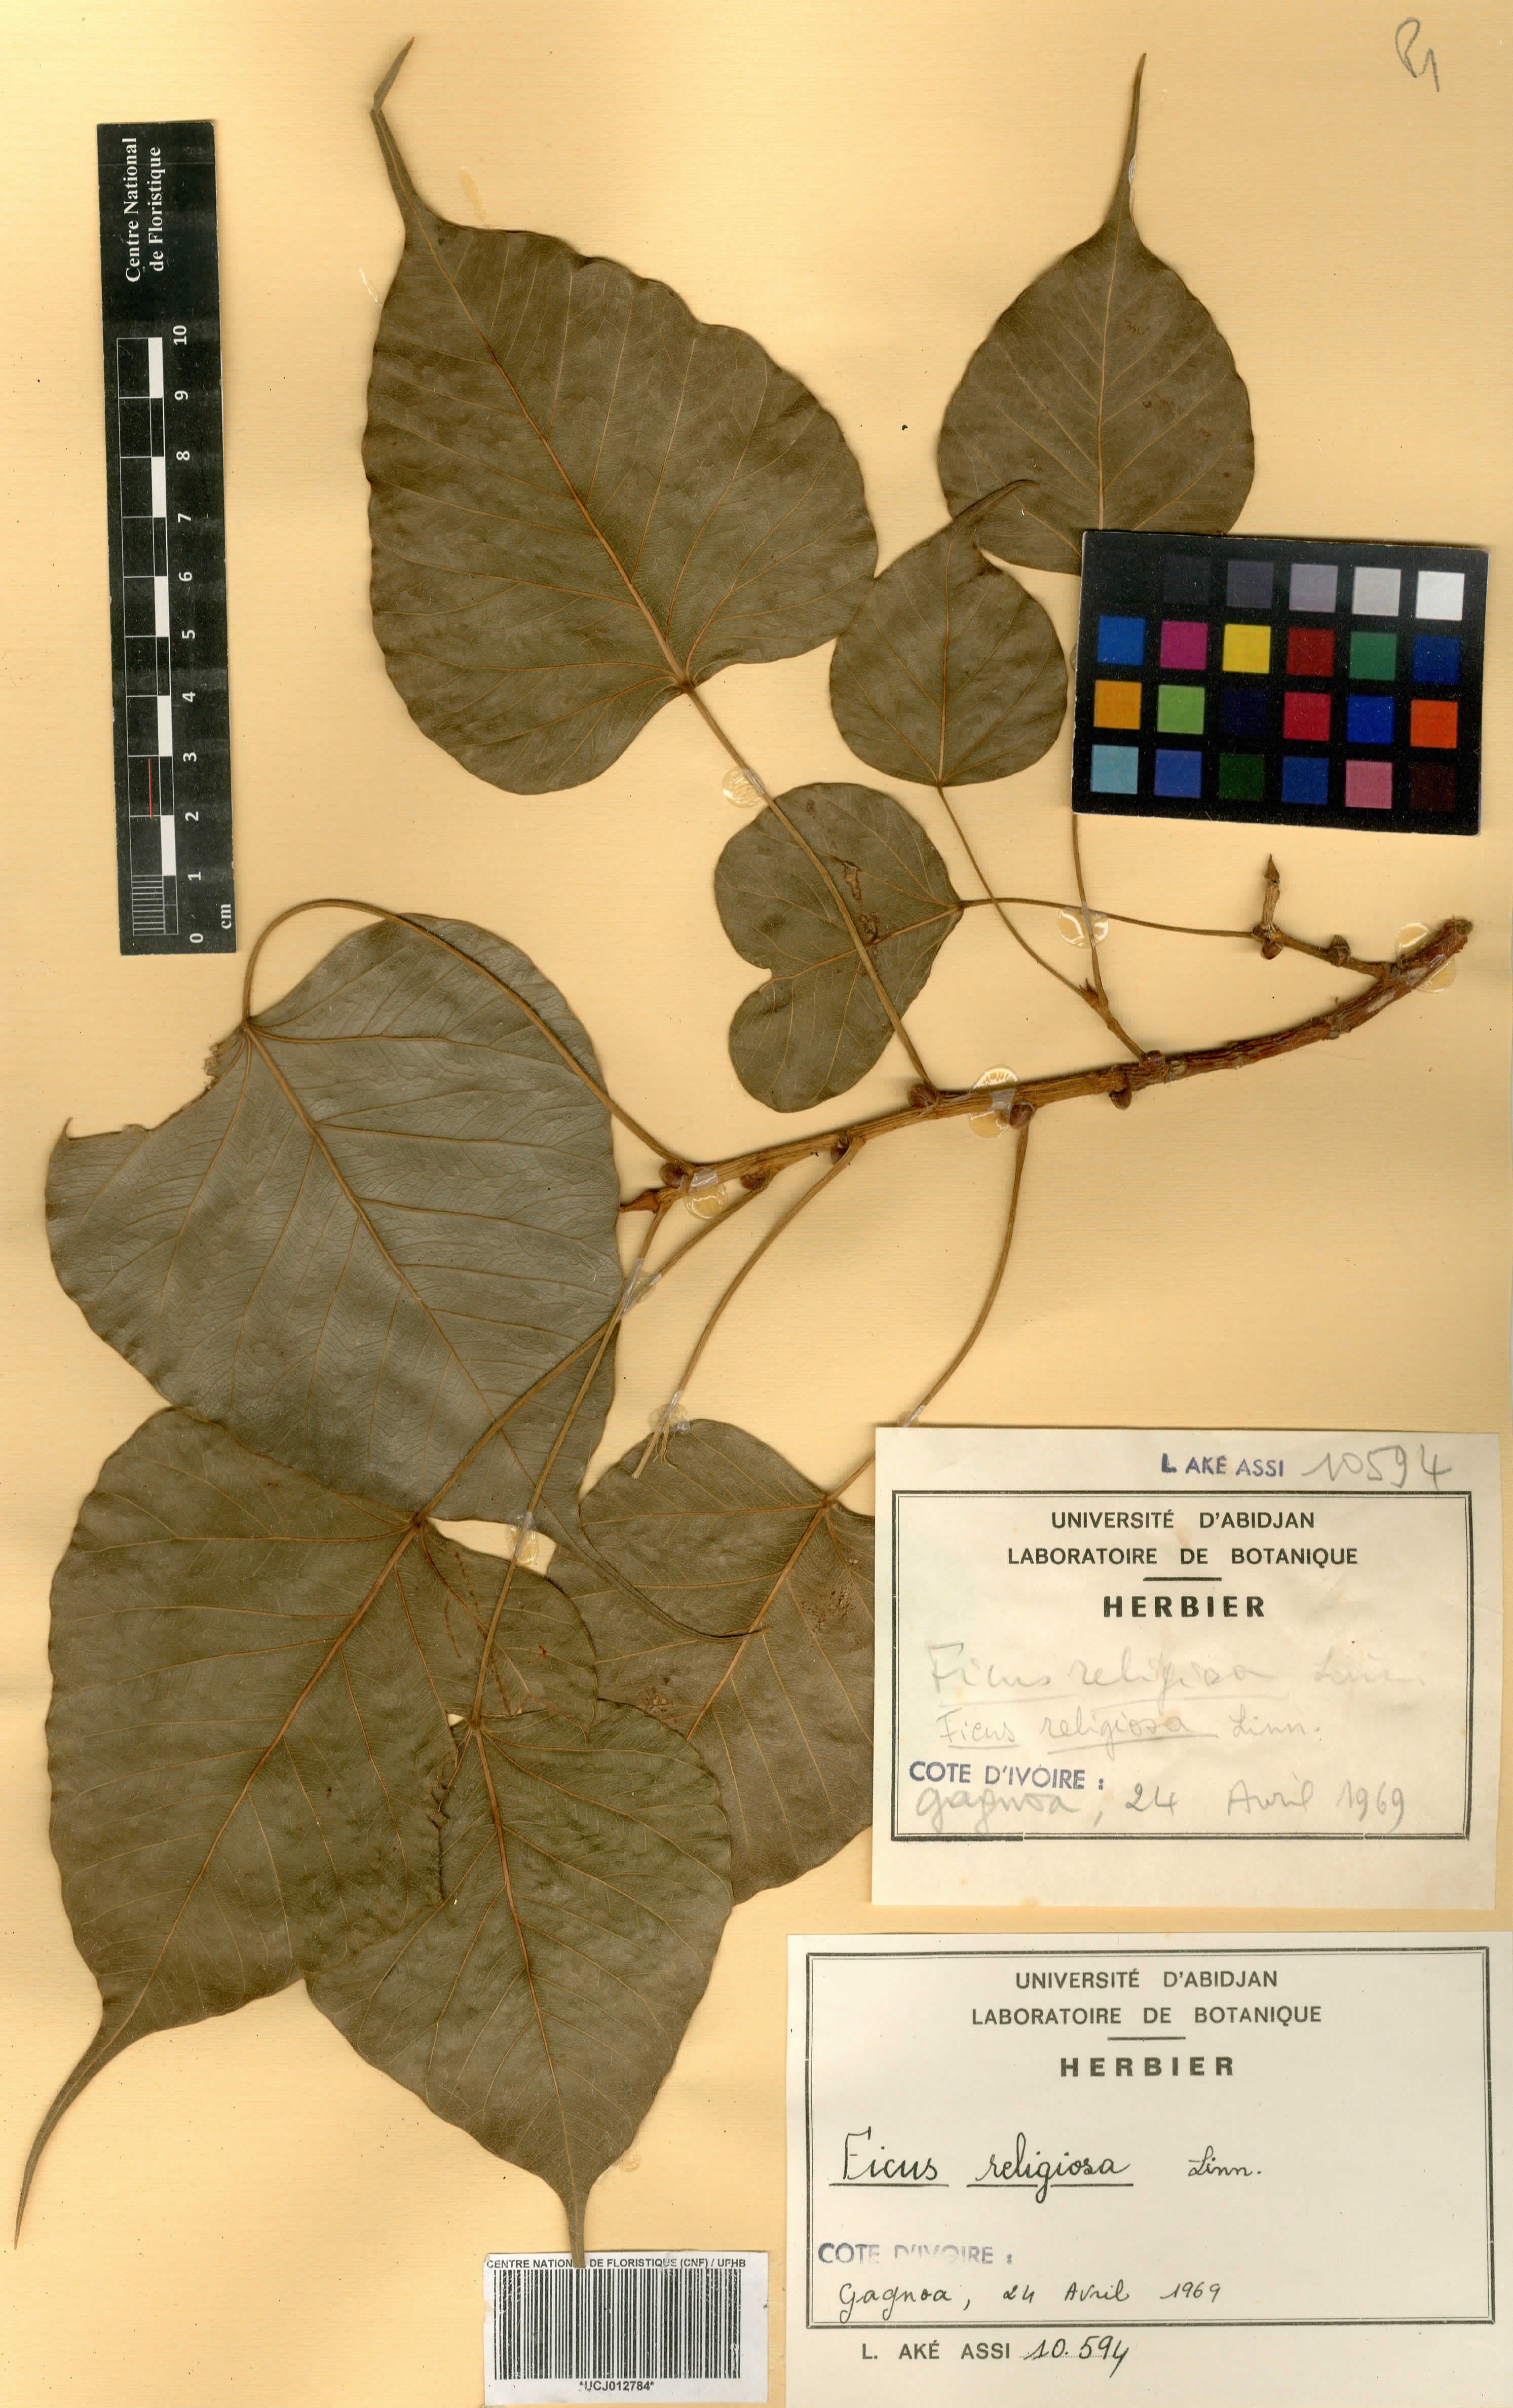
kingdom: Plantae
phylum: Tracheophyta
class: Magnoliopsida
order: Rosales
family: Moraceae
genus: Ficus
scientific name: Ficus religiosa
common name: Bodhi tree
